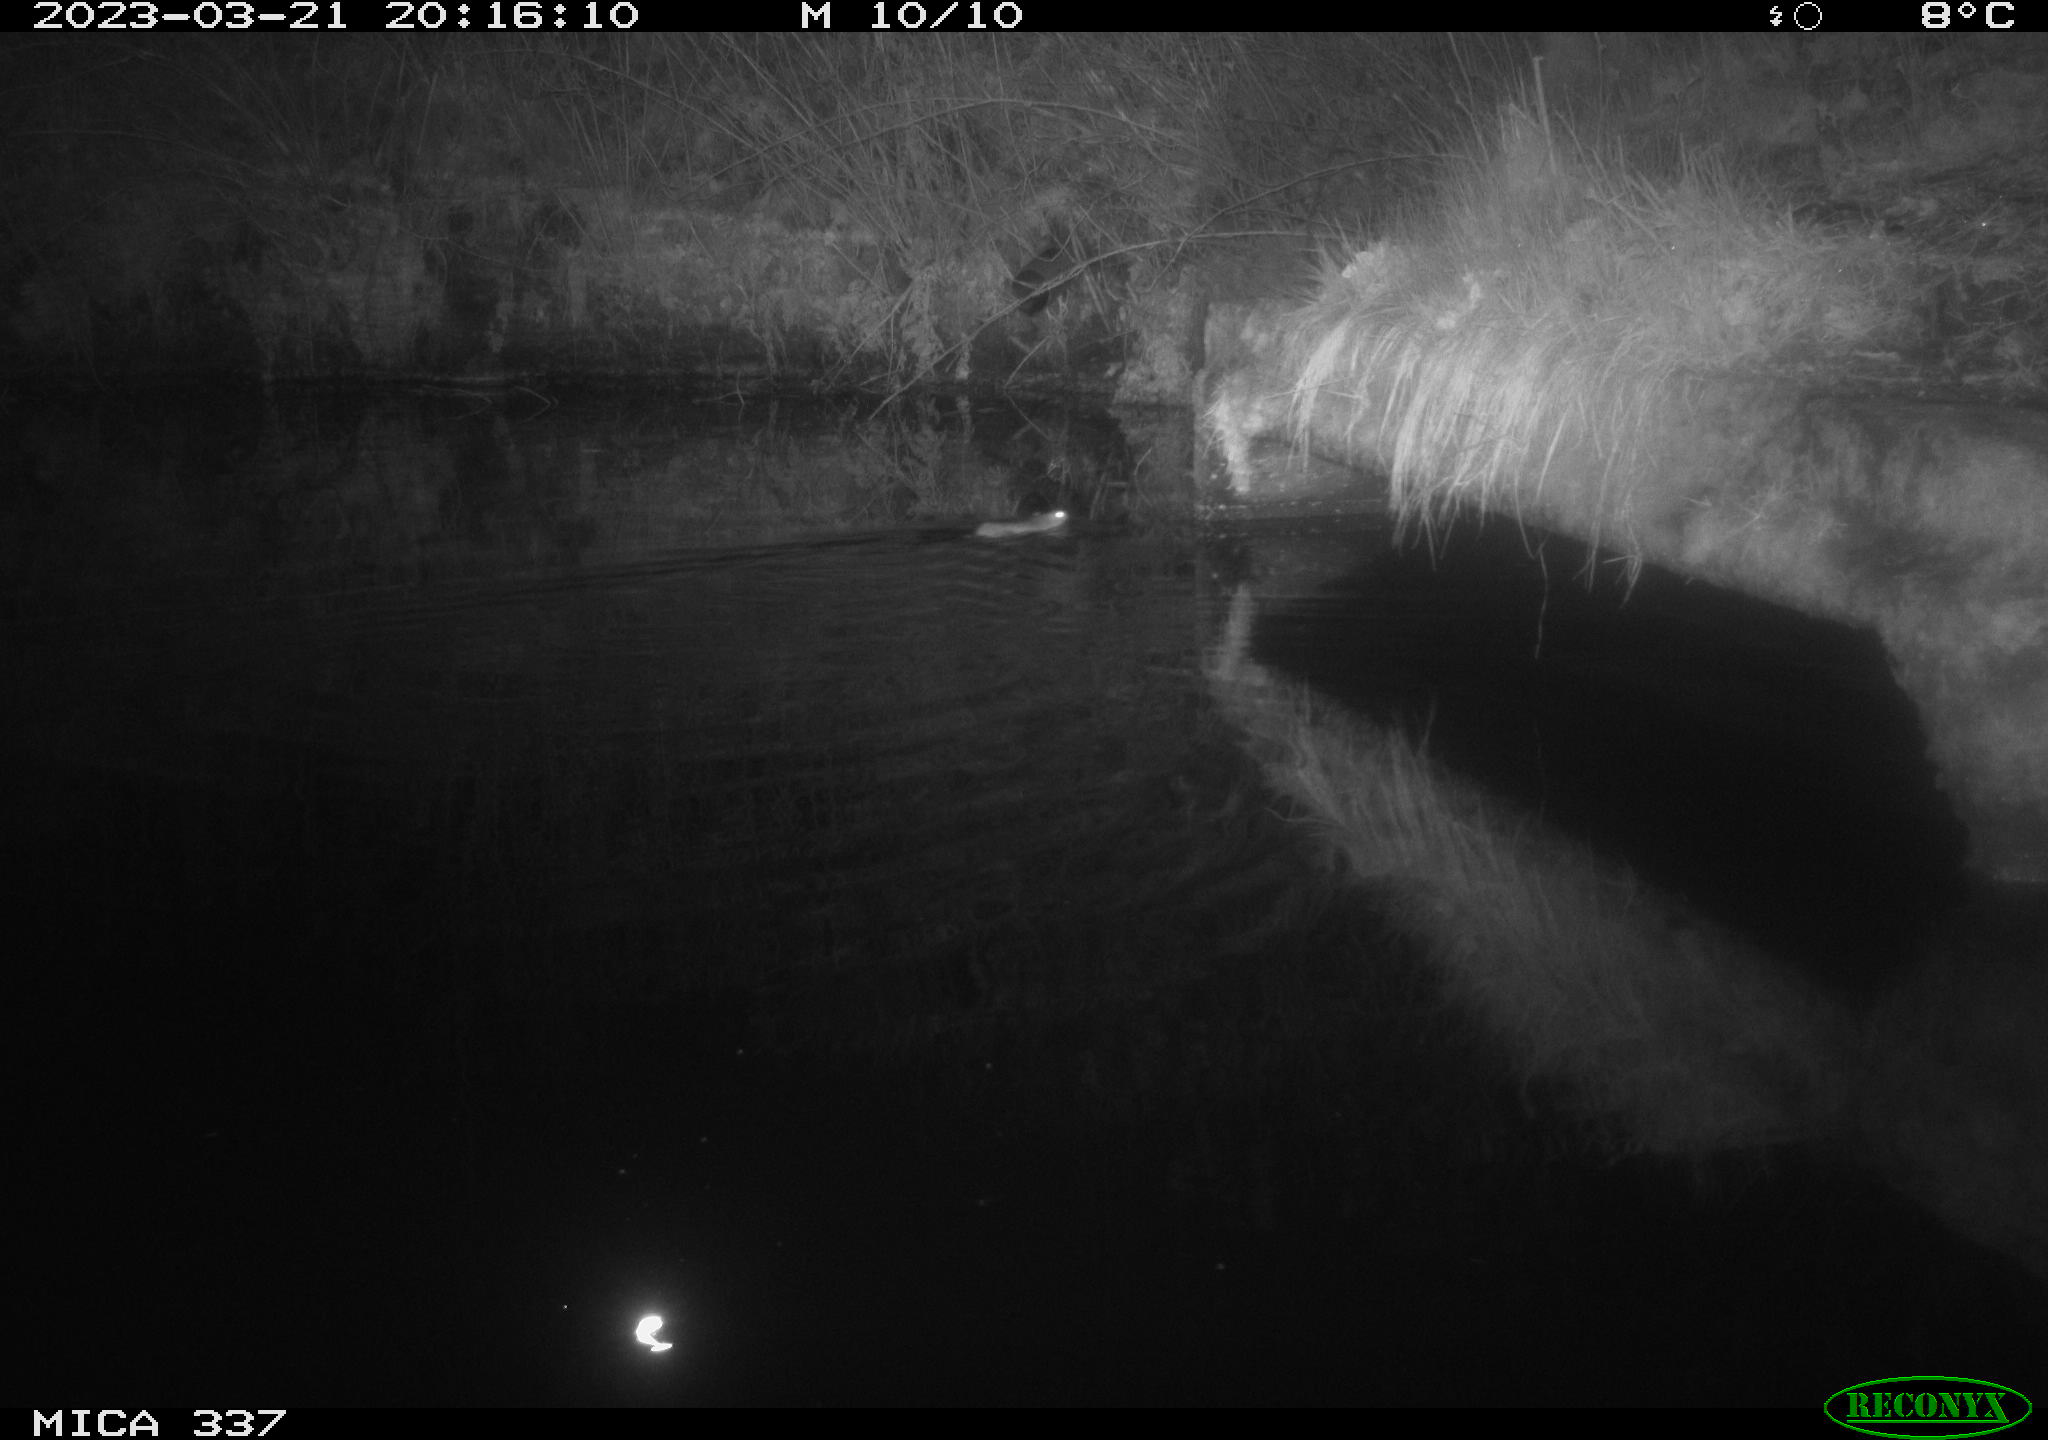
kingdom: Animalia
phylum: Chordata
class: Mammalia
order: Rodentia
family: Muridae
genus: Rattus
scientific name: Rattus norvegicus
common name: Brown rat
